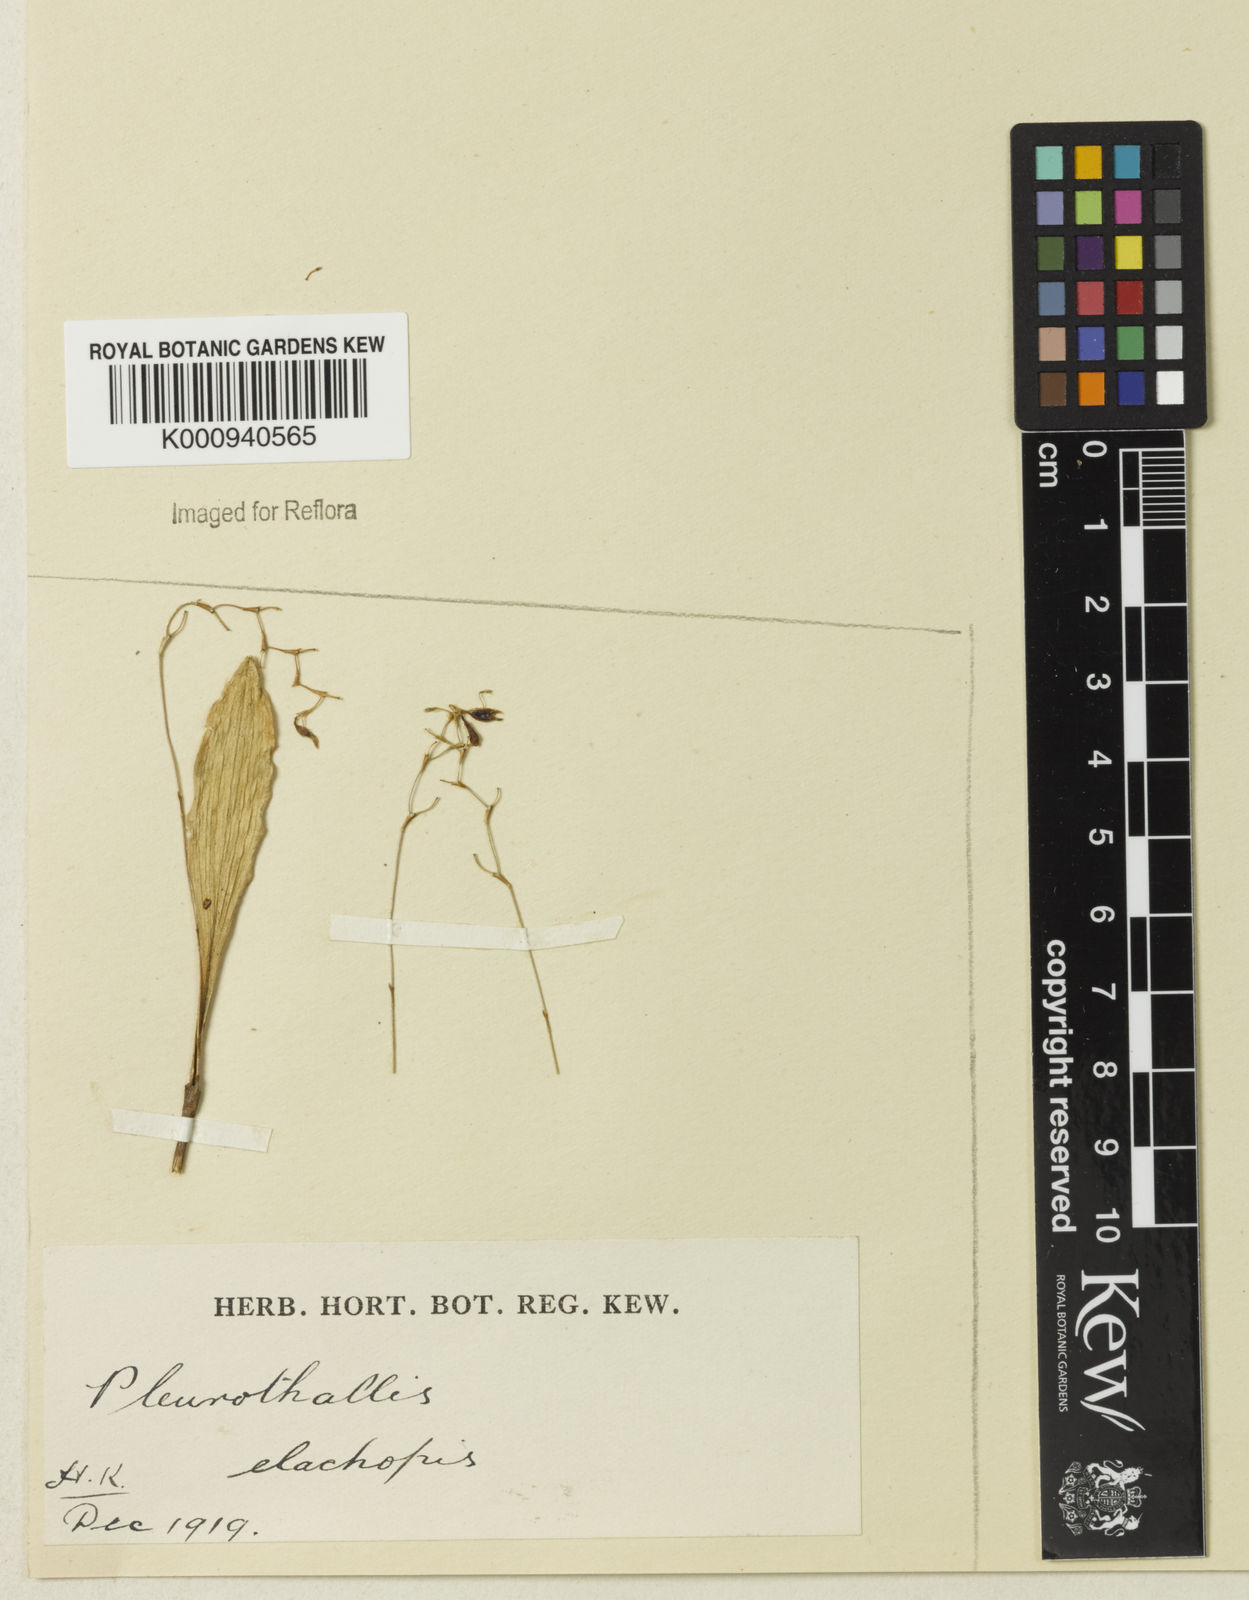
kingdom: Plantae
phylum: Tracheophyta
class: Liliopsida
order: Asparagales
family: Orchidaceae
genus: Stelis
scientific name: Stelis
